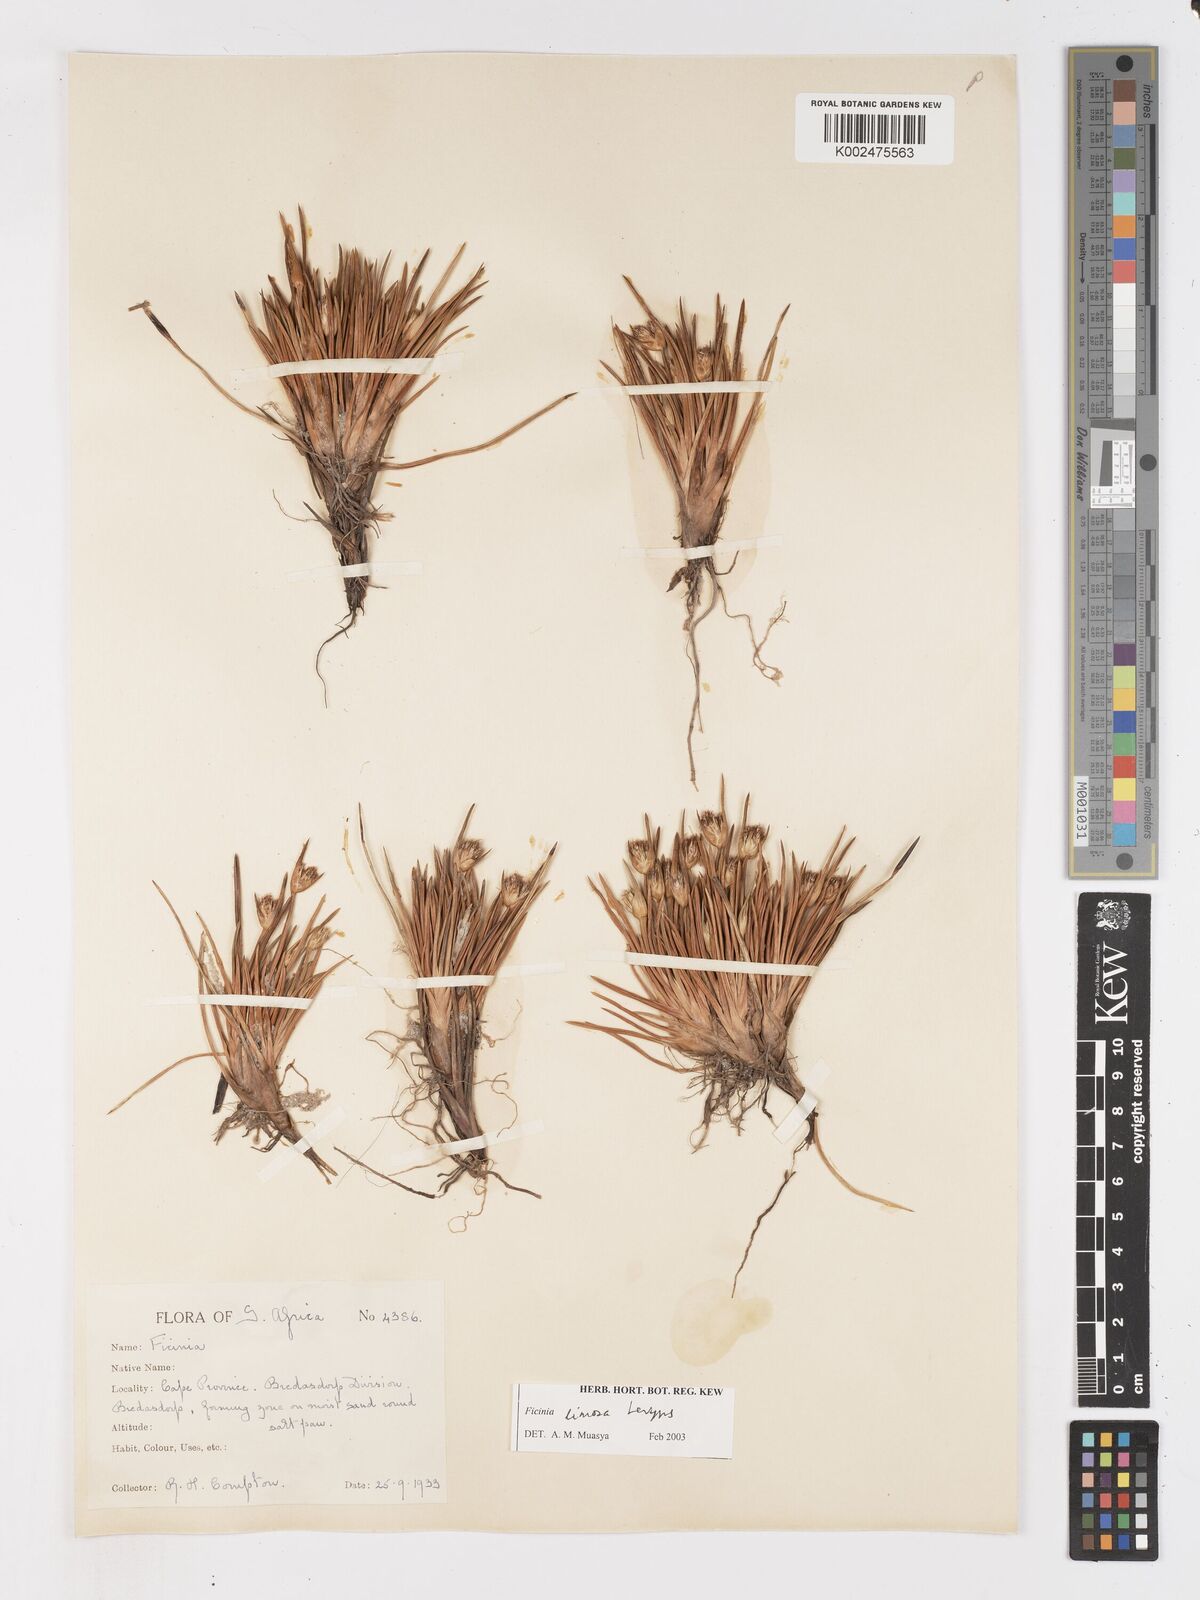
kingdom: Plantae
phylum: Tracheophyta
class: Liliopsida
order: Poales
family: Cyperaceae
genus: Ficinia
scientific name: Ficinia pygmaea
